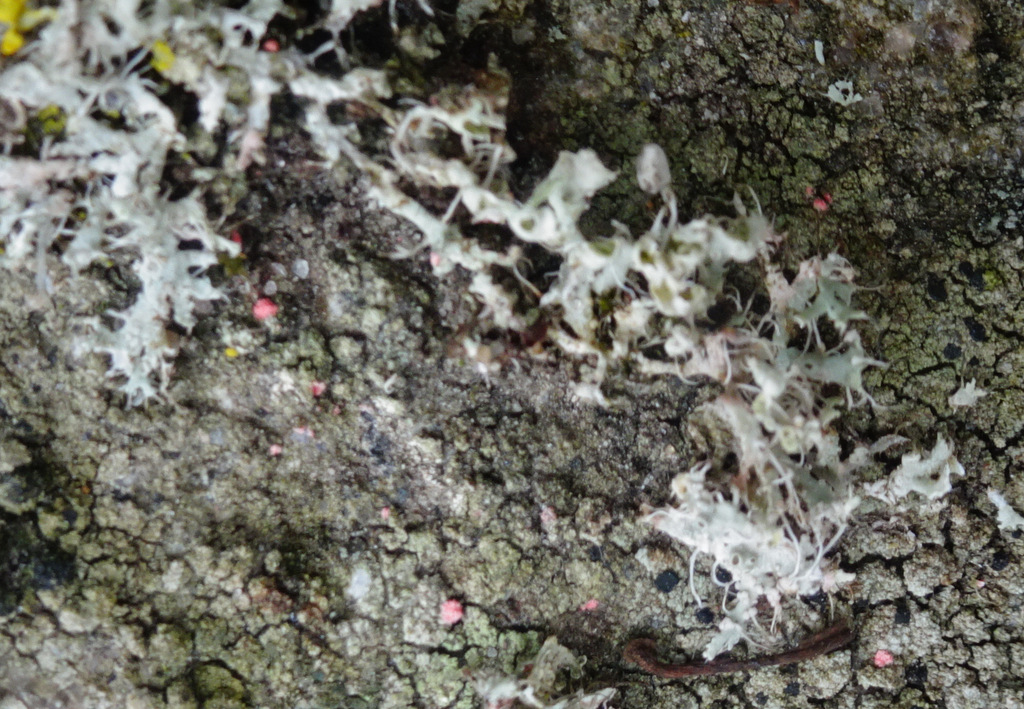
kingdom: Fungi
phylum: Ascomycota
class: Sordariomycetes
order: Hypocreales
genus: Illosporiopsis
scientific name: Illosporiopsis christiansenii
